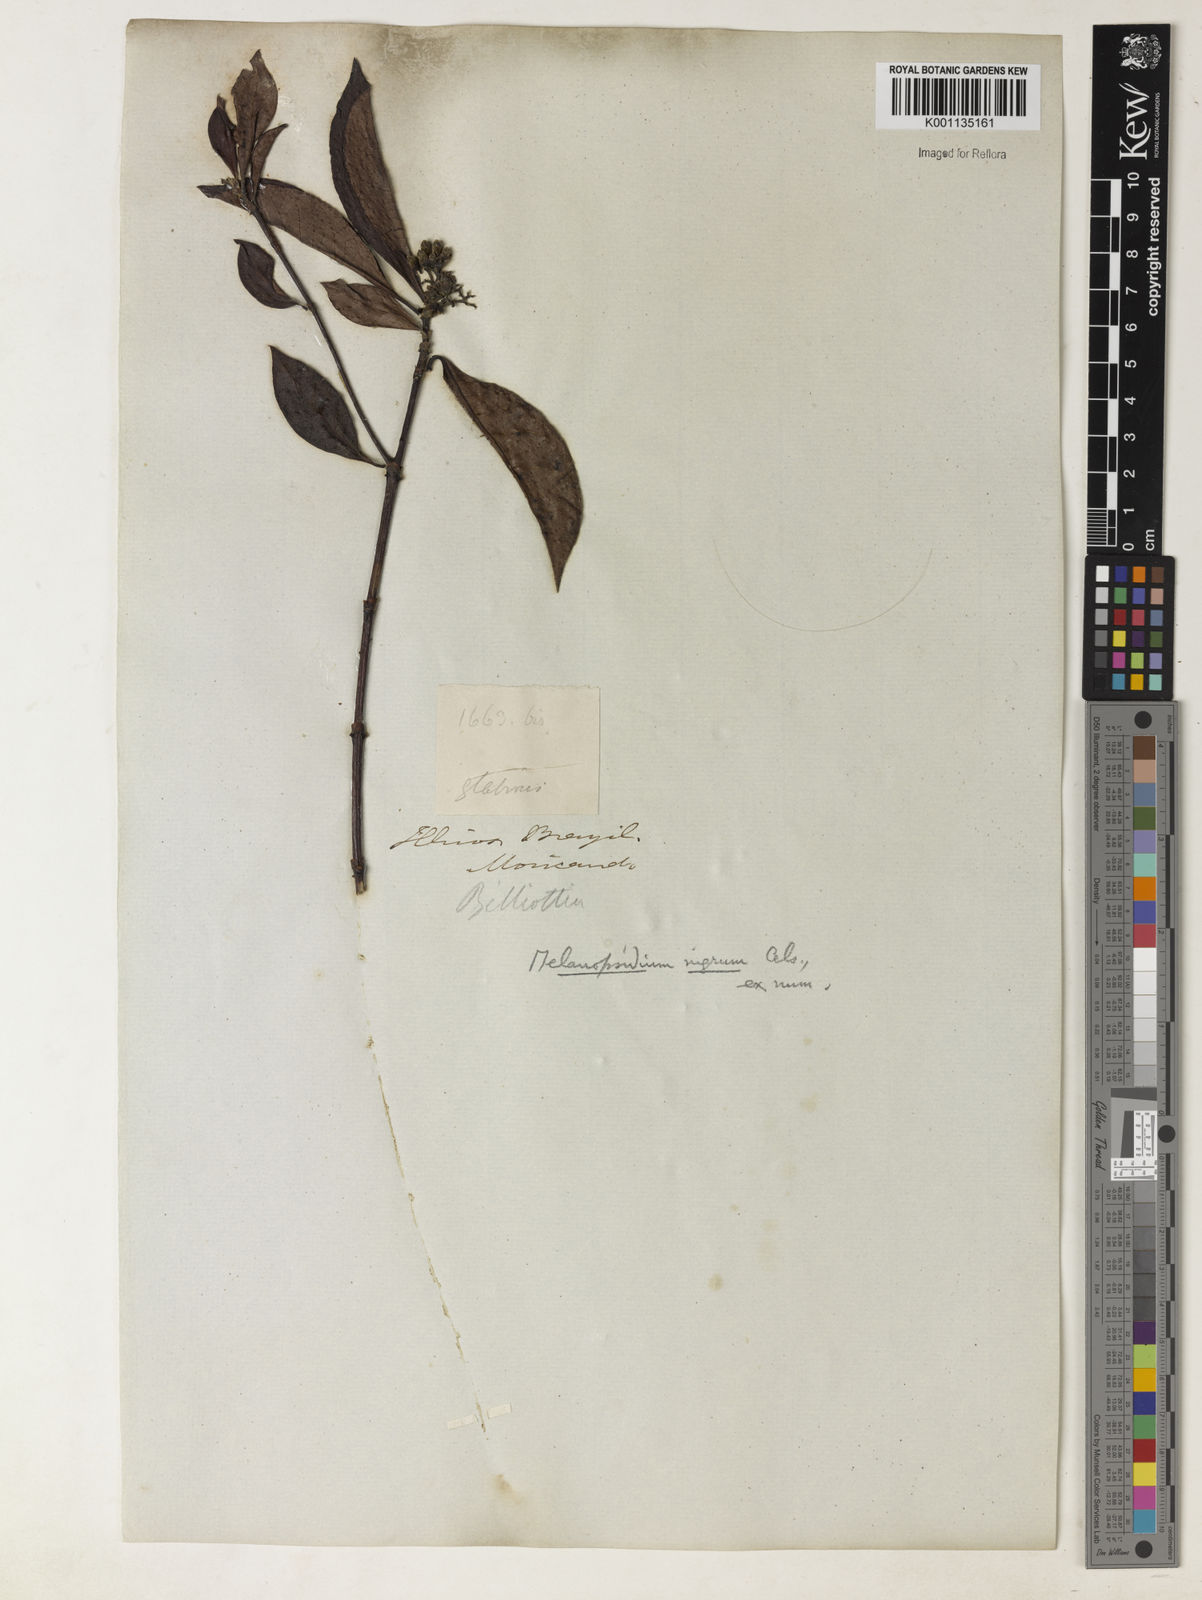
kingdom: Plantae
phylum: Tracheophyta
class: Magnoliopsida
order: Gentianales
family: Rubiaceae
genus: Melanopsidium
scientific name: Melanopsidium nigrum
